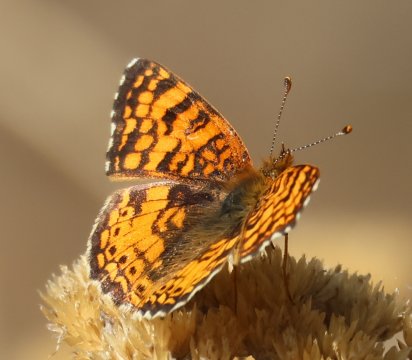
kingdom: Animalia
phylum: Arthropoda
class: Insecta
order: Lepidoptera
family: Nymphalidae
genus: Eresia
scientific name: Eresia aveyrona
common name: Mylitta Crescent
